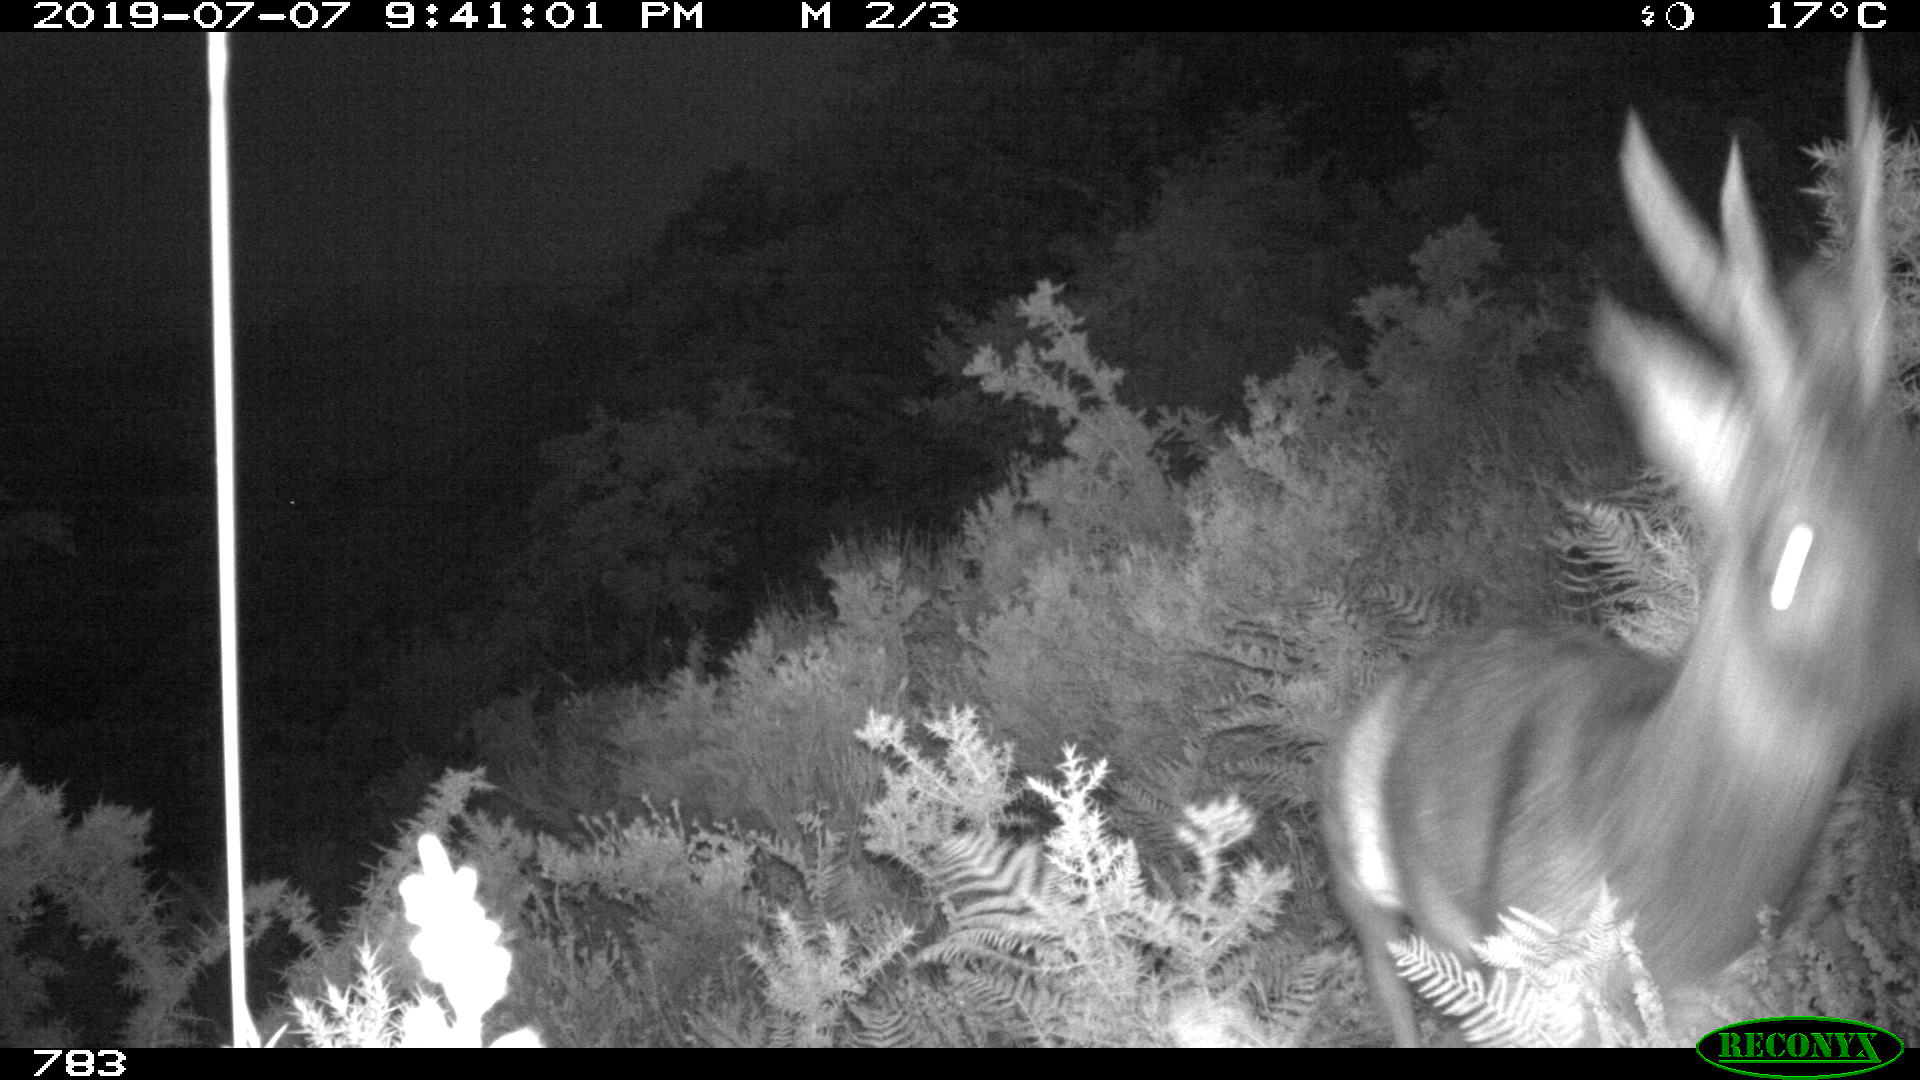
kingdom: Animalia
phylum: Chordata
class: Mammalia
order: Artiodactyla
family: Cervidae
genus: Capreolus
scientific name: Capreolus capreolus
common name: Western roe deer
